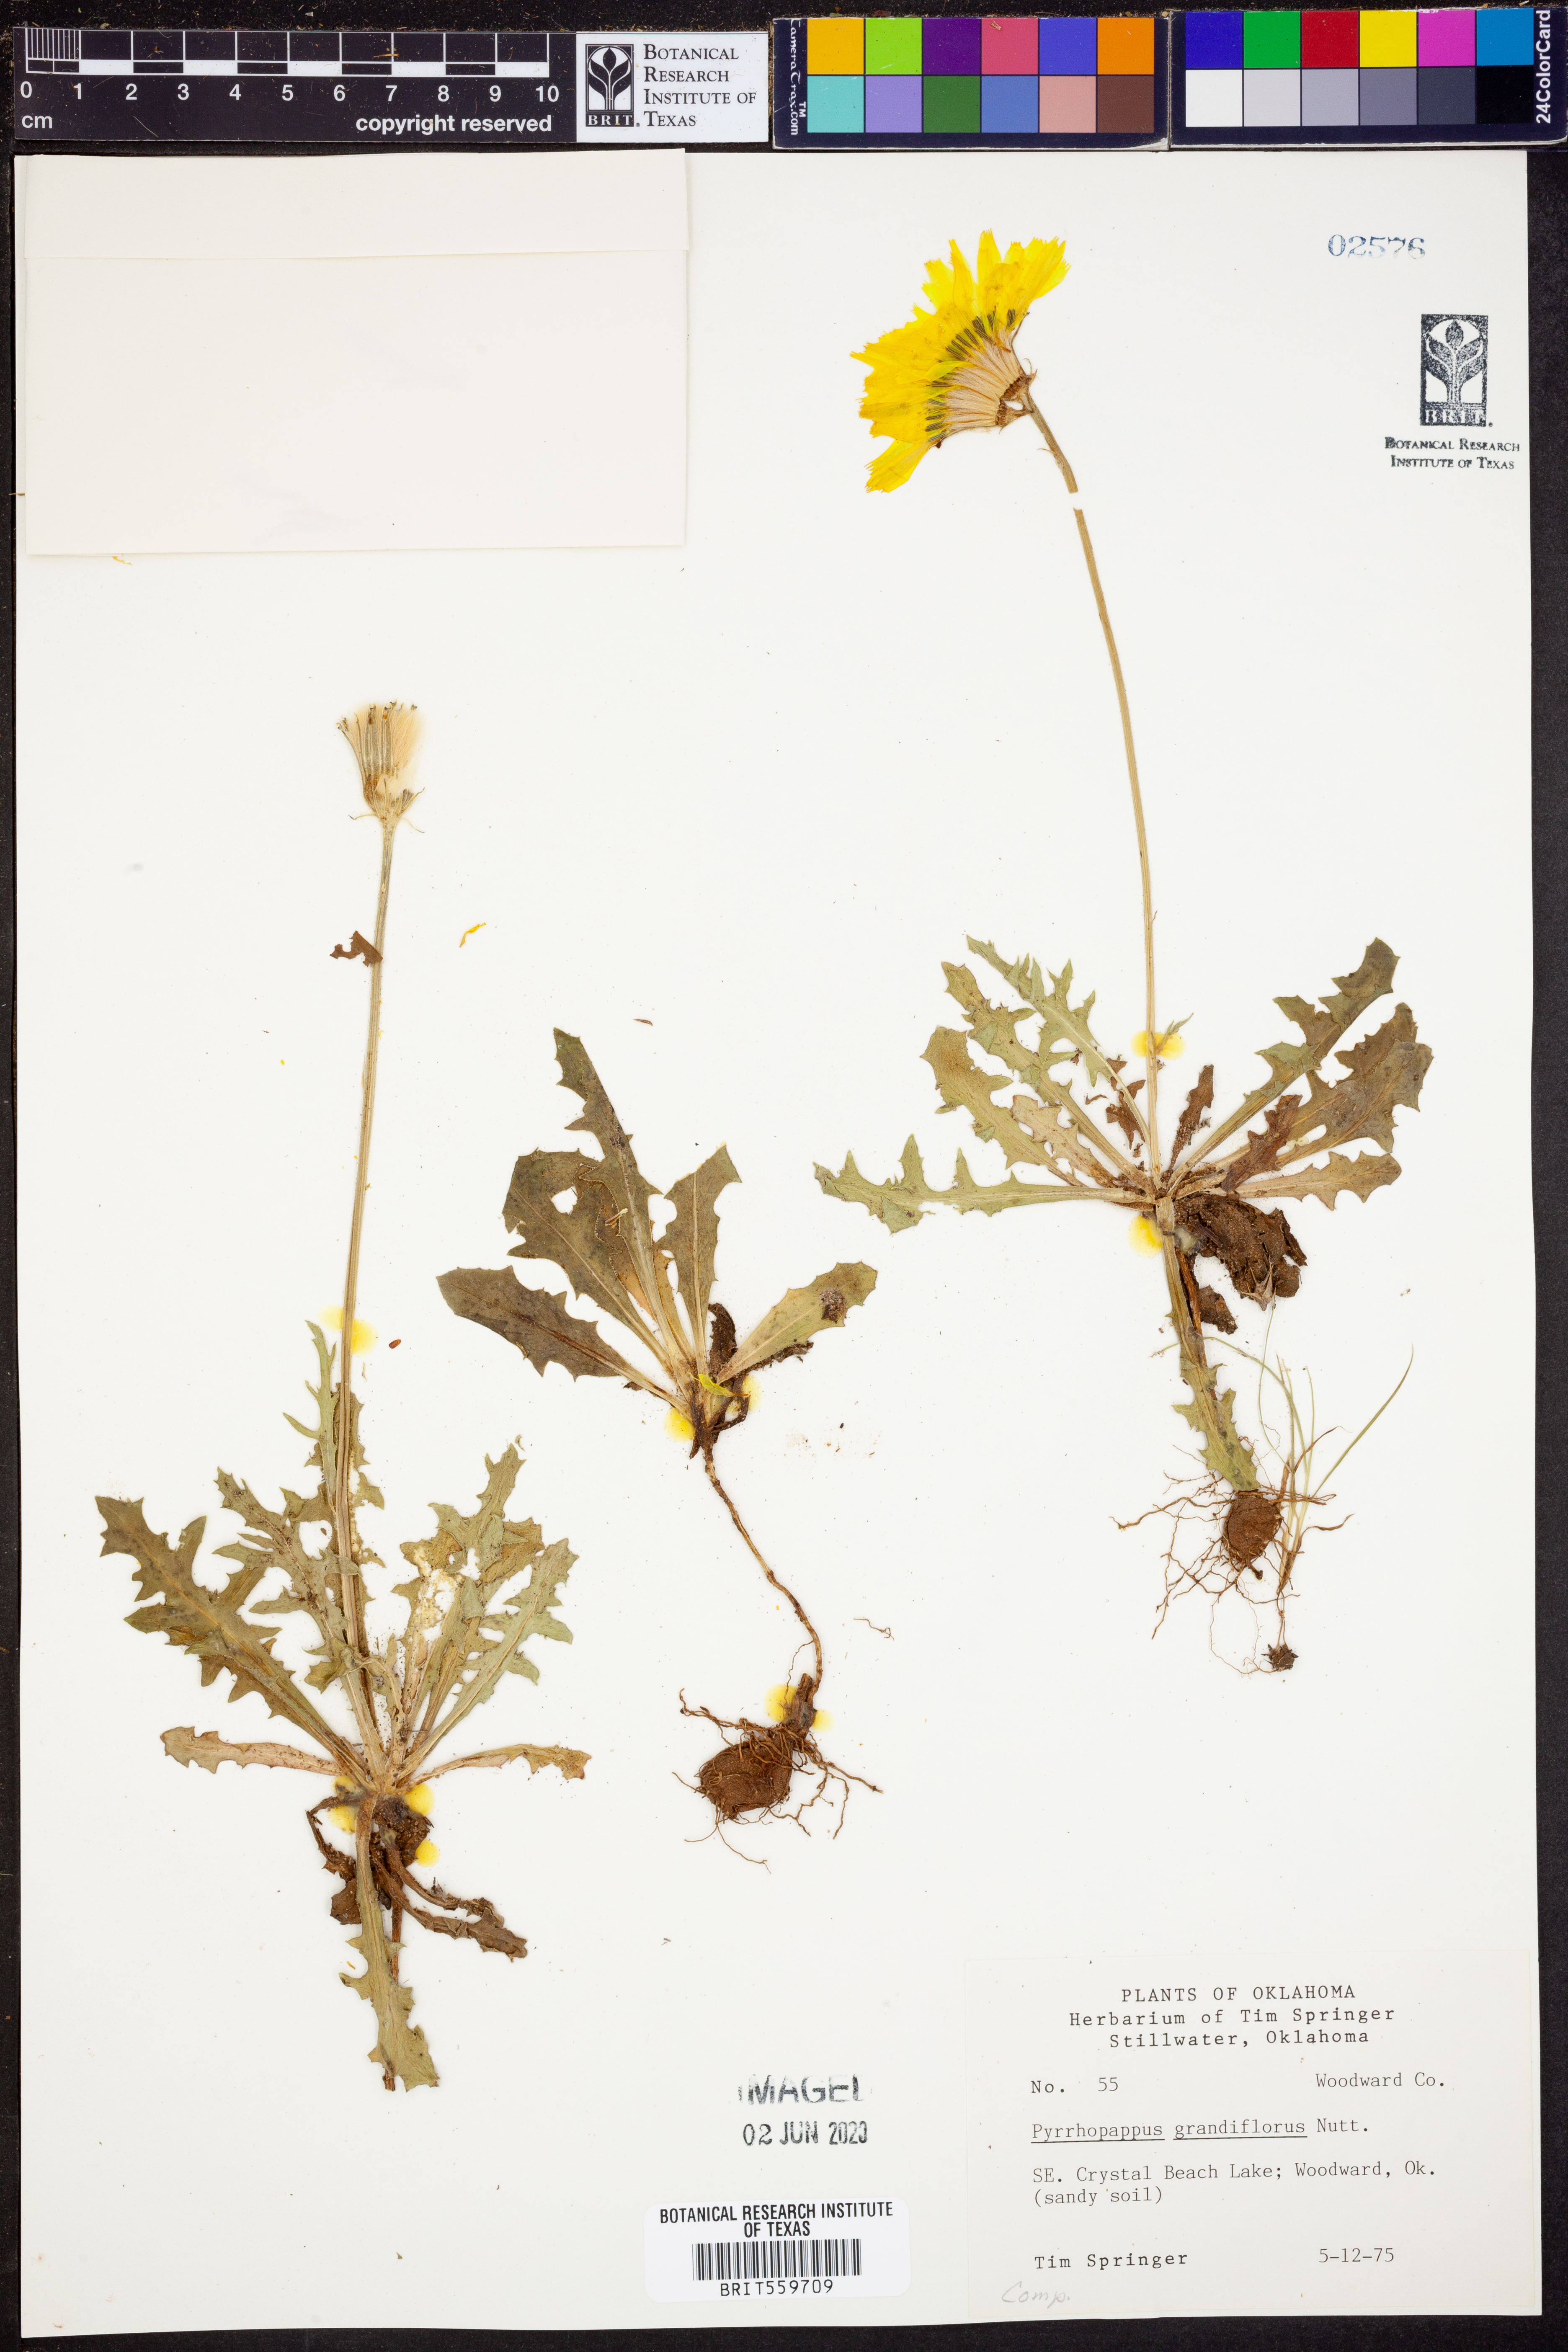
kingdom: Plantae
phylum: Tracheophyta
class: Magnoliopsida
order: Asterales
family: Asteraceae
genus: Pyrrhopappus
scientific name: Pyrrhopappus grandiflorus
